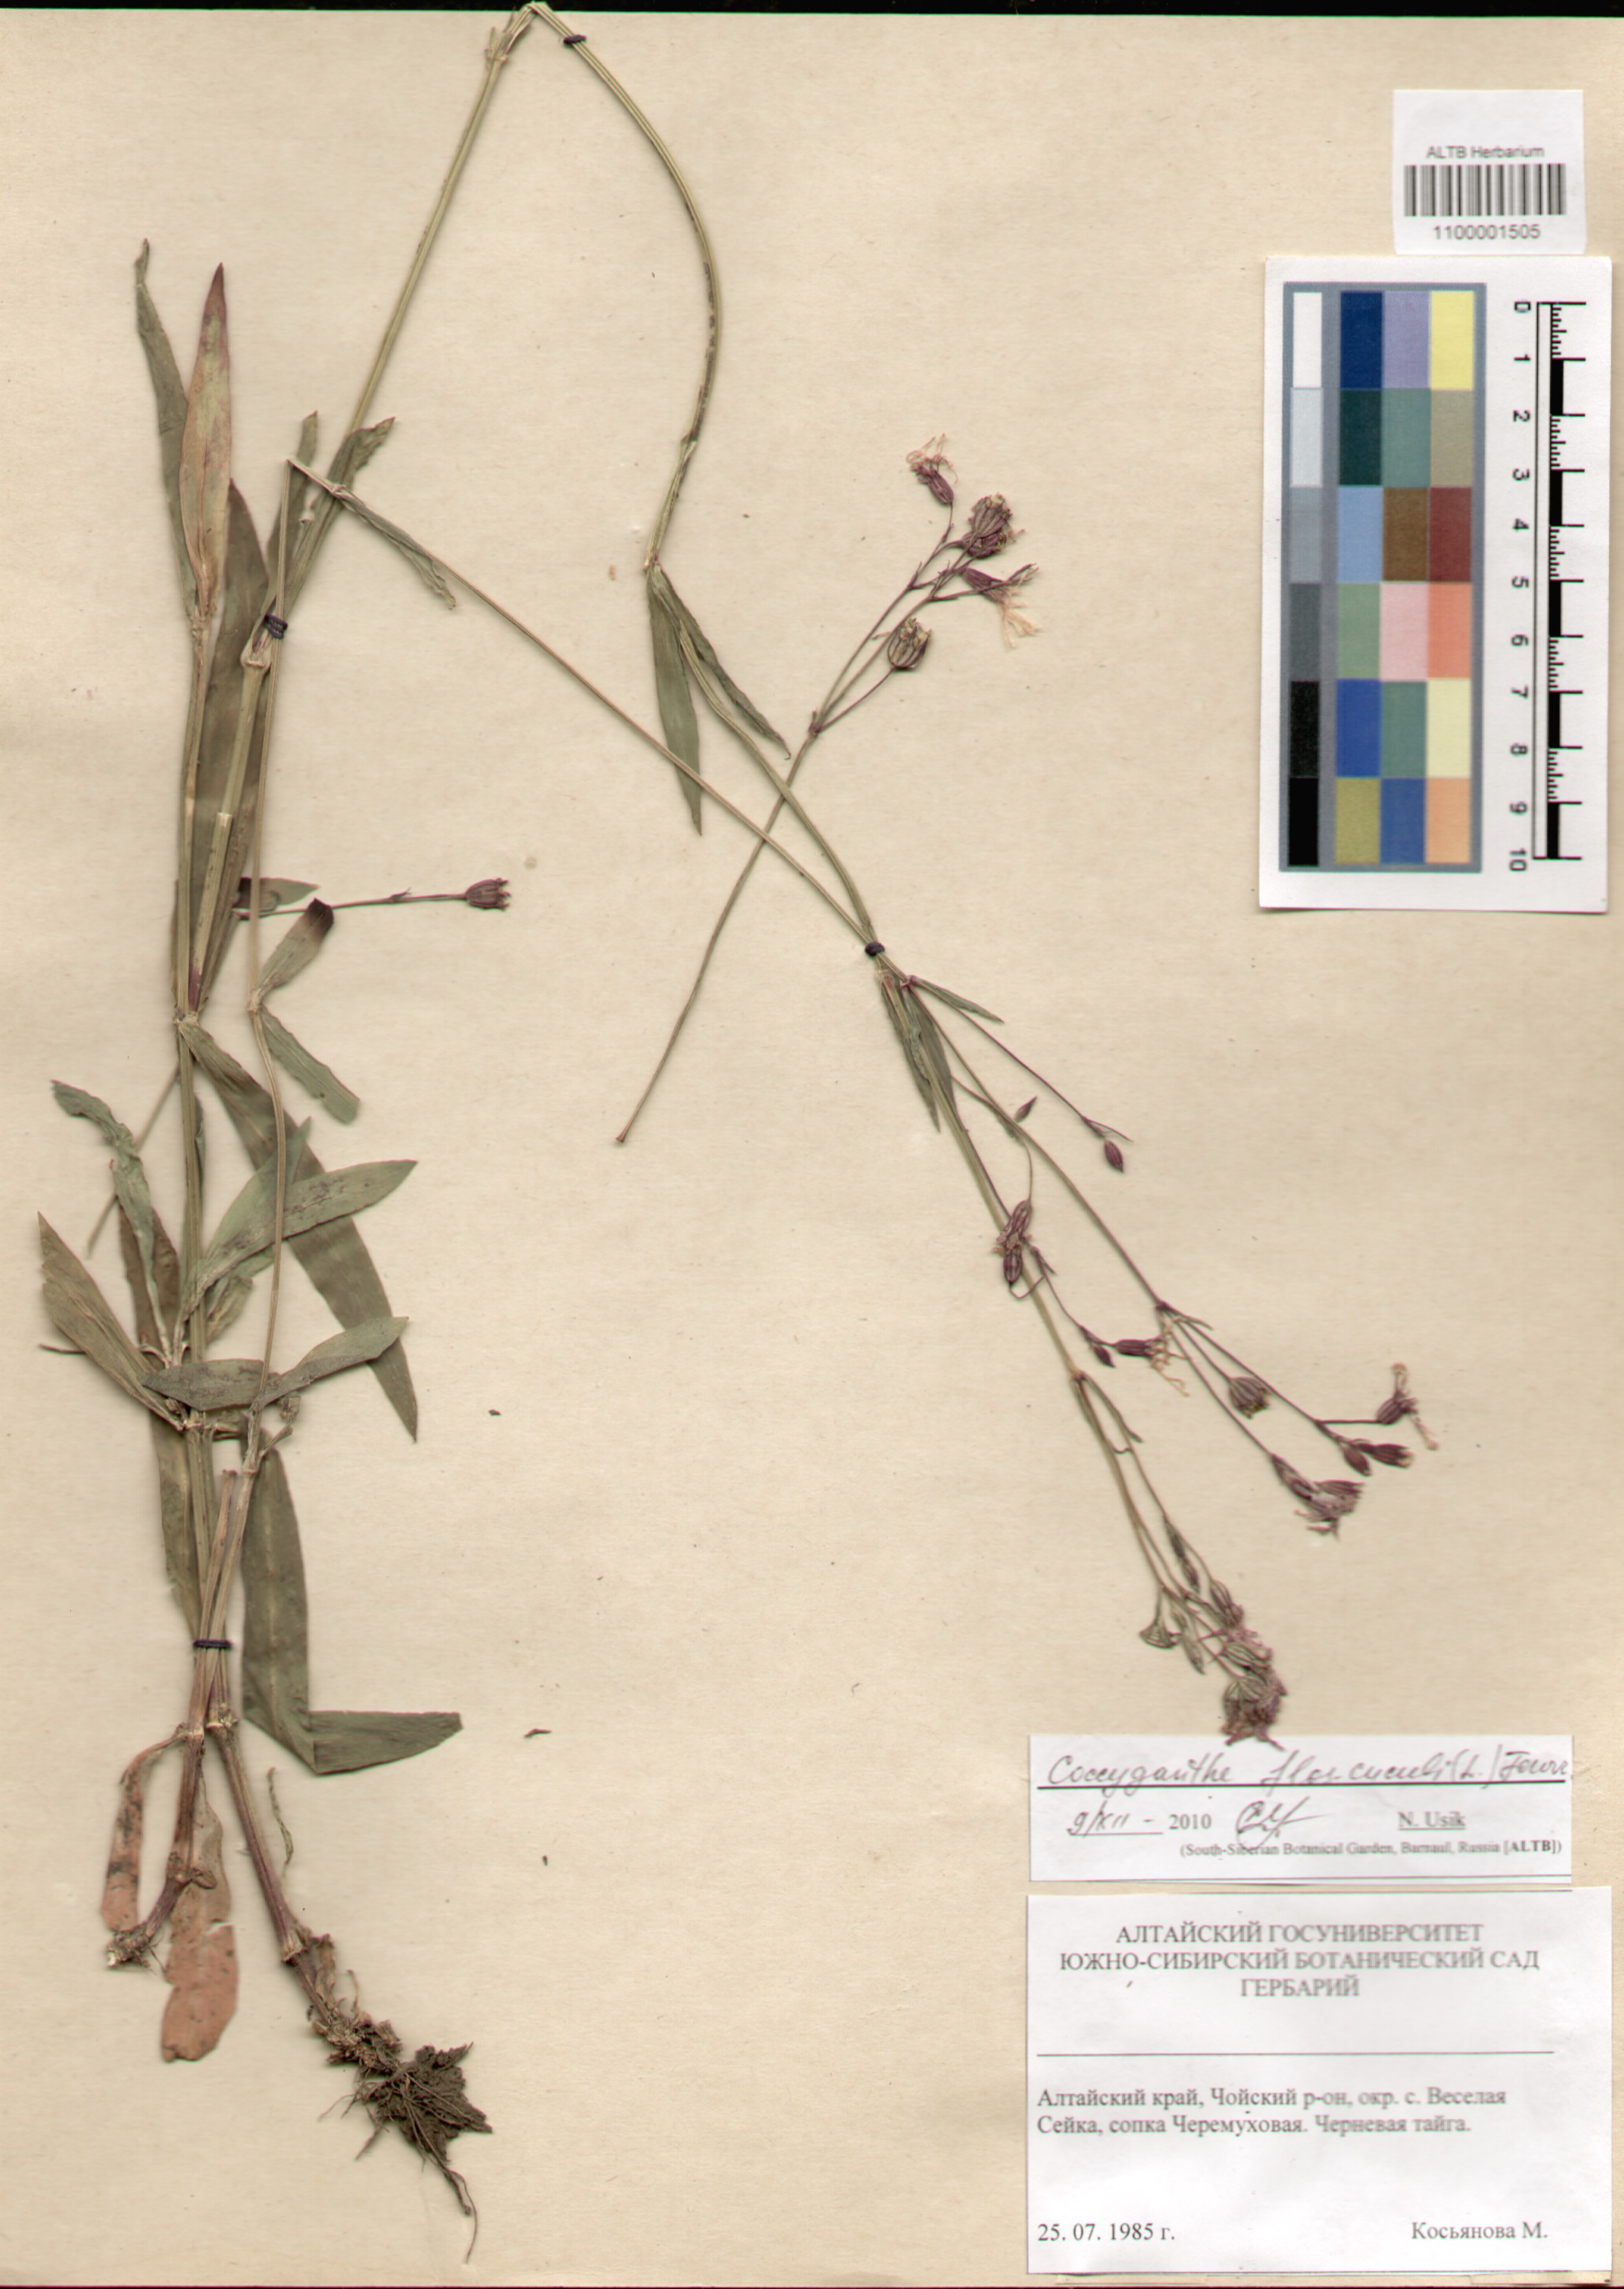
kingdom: Plantae
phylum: Tracheophyta
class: Magnoliopsida
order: Caryophyllales
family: Caryophyllaceae
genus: Silene
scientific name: Silene flos-cuculi
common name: Ragged-robin
